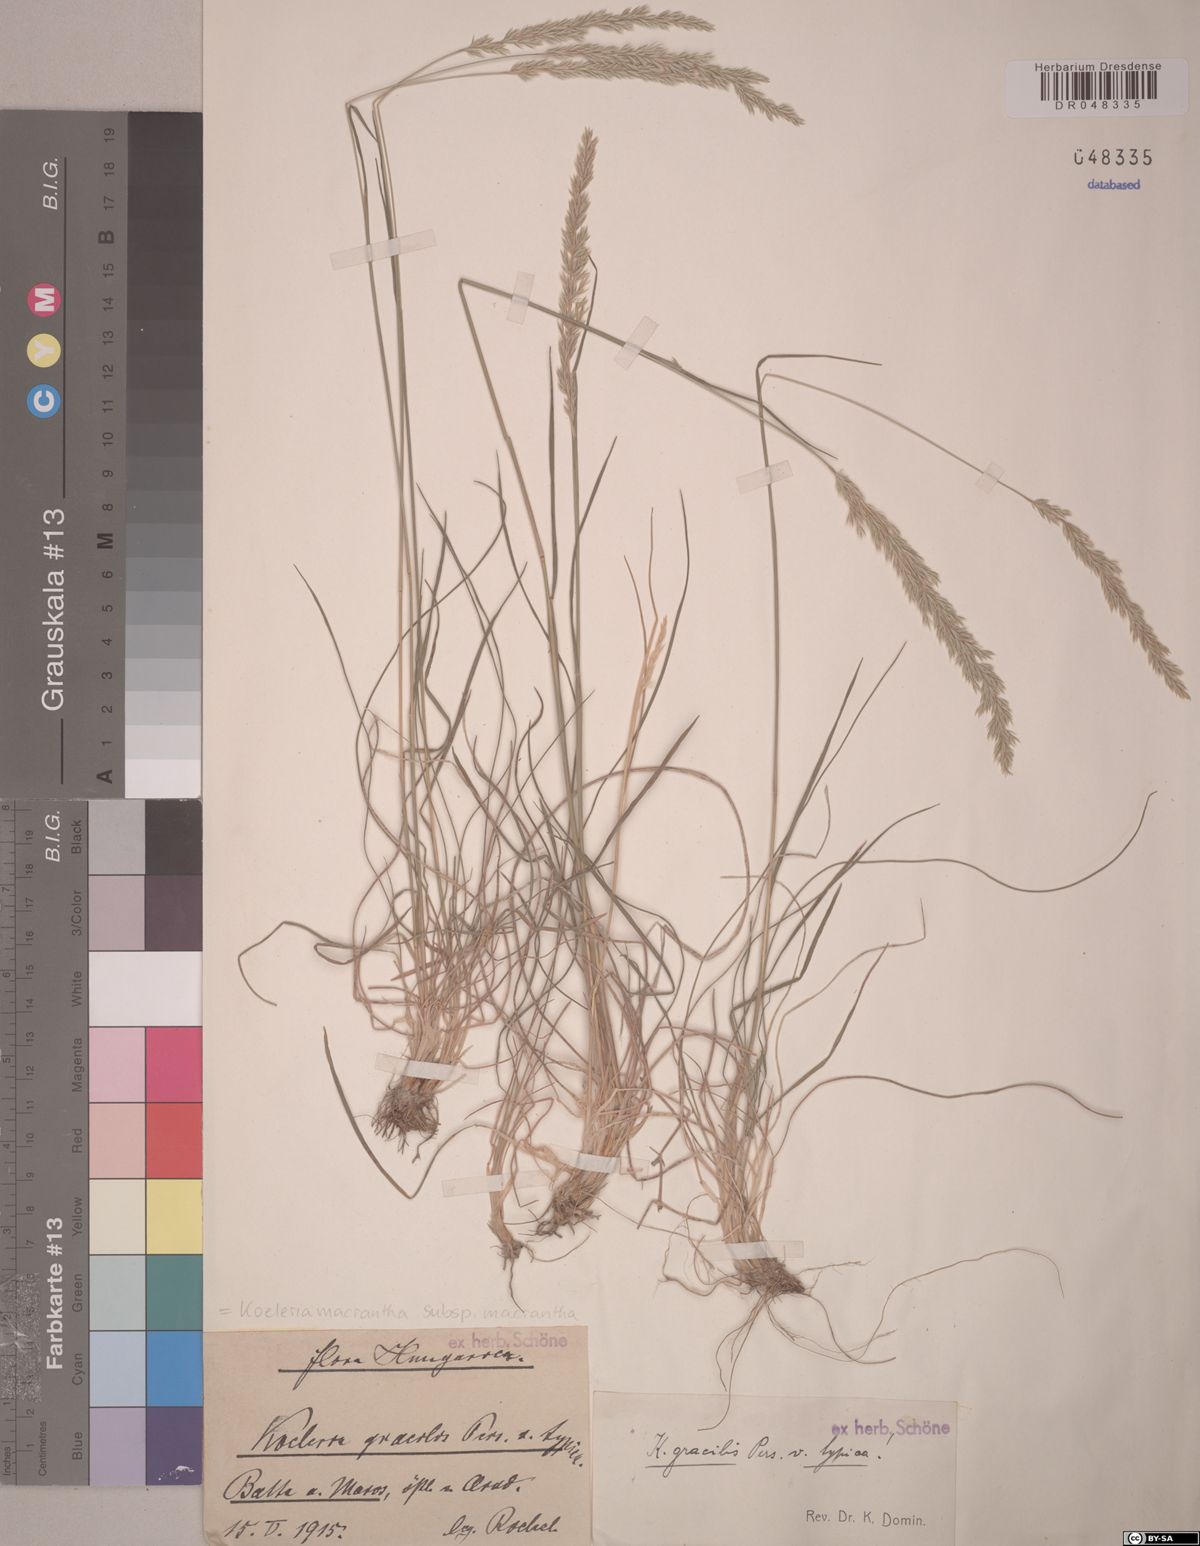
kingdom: Plantae
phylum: Tracheophyta
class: Liliopsida
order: Poales
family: Poaceae
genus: Koeleria
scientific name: Koeleria macrantha
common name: Crested hair-grass
